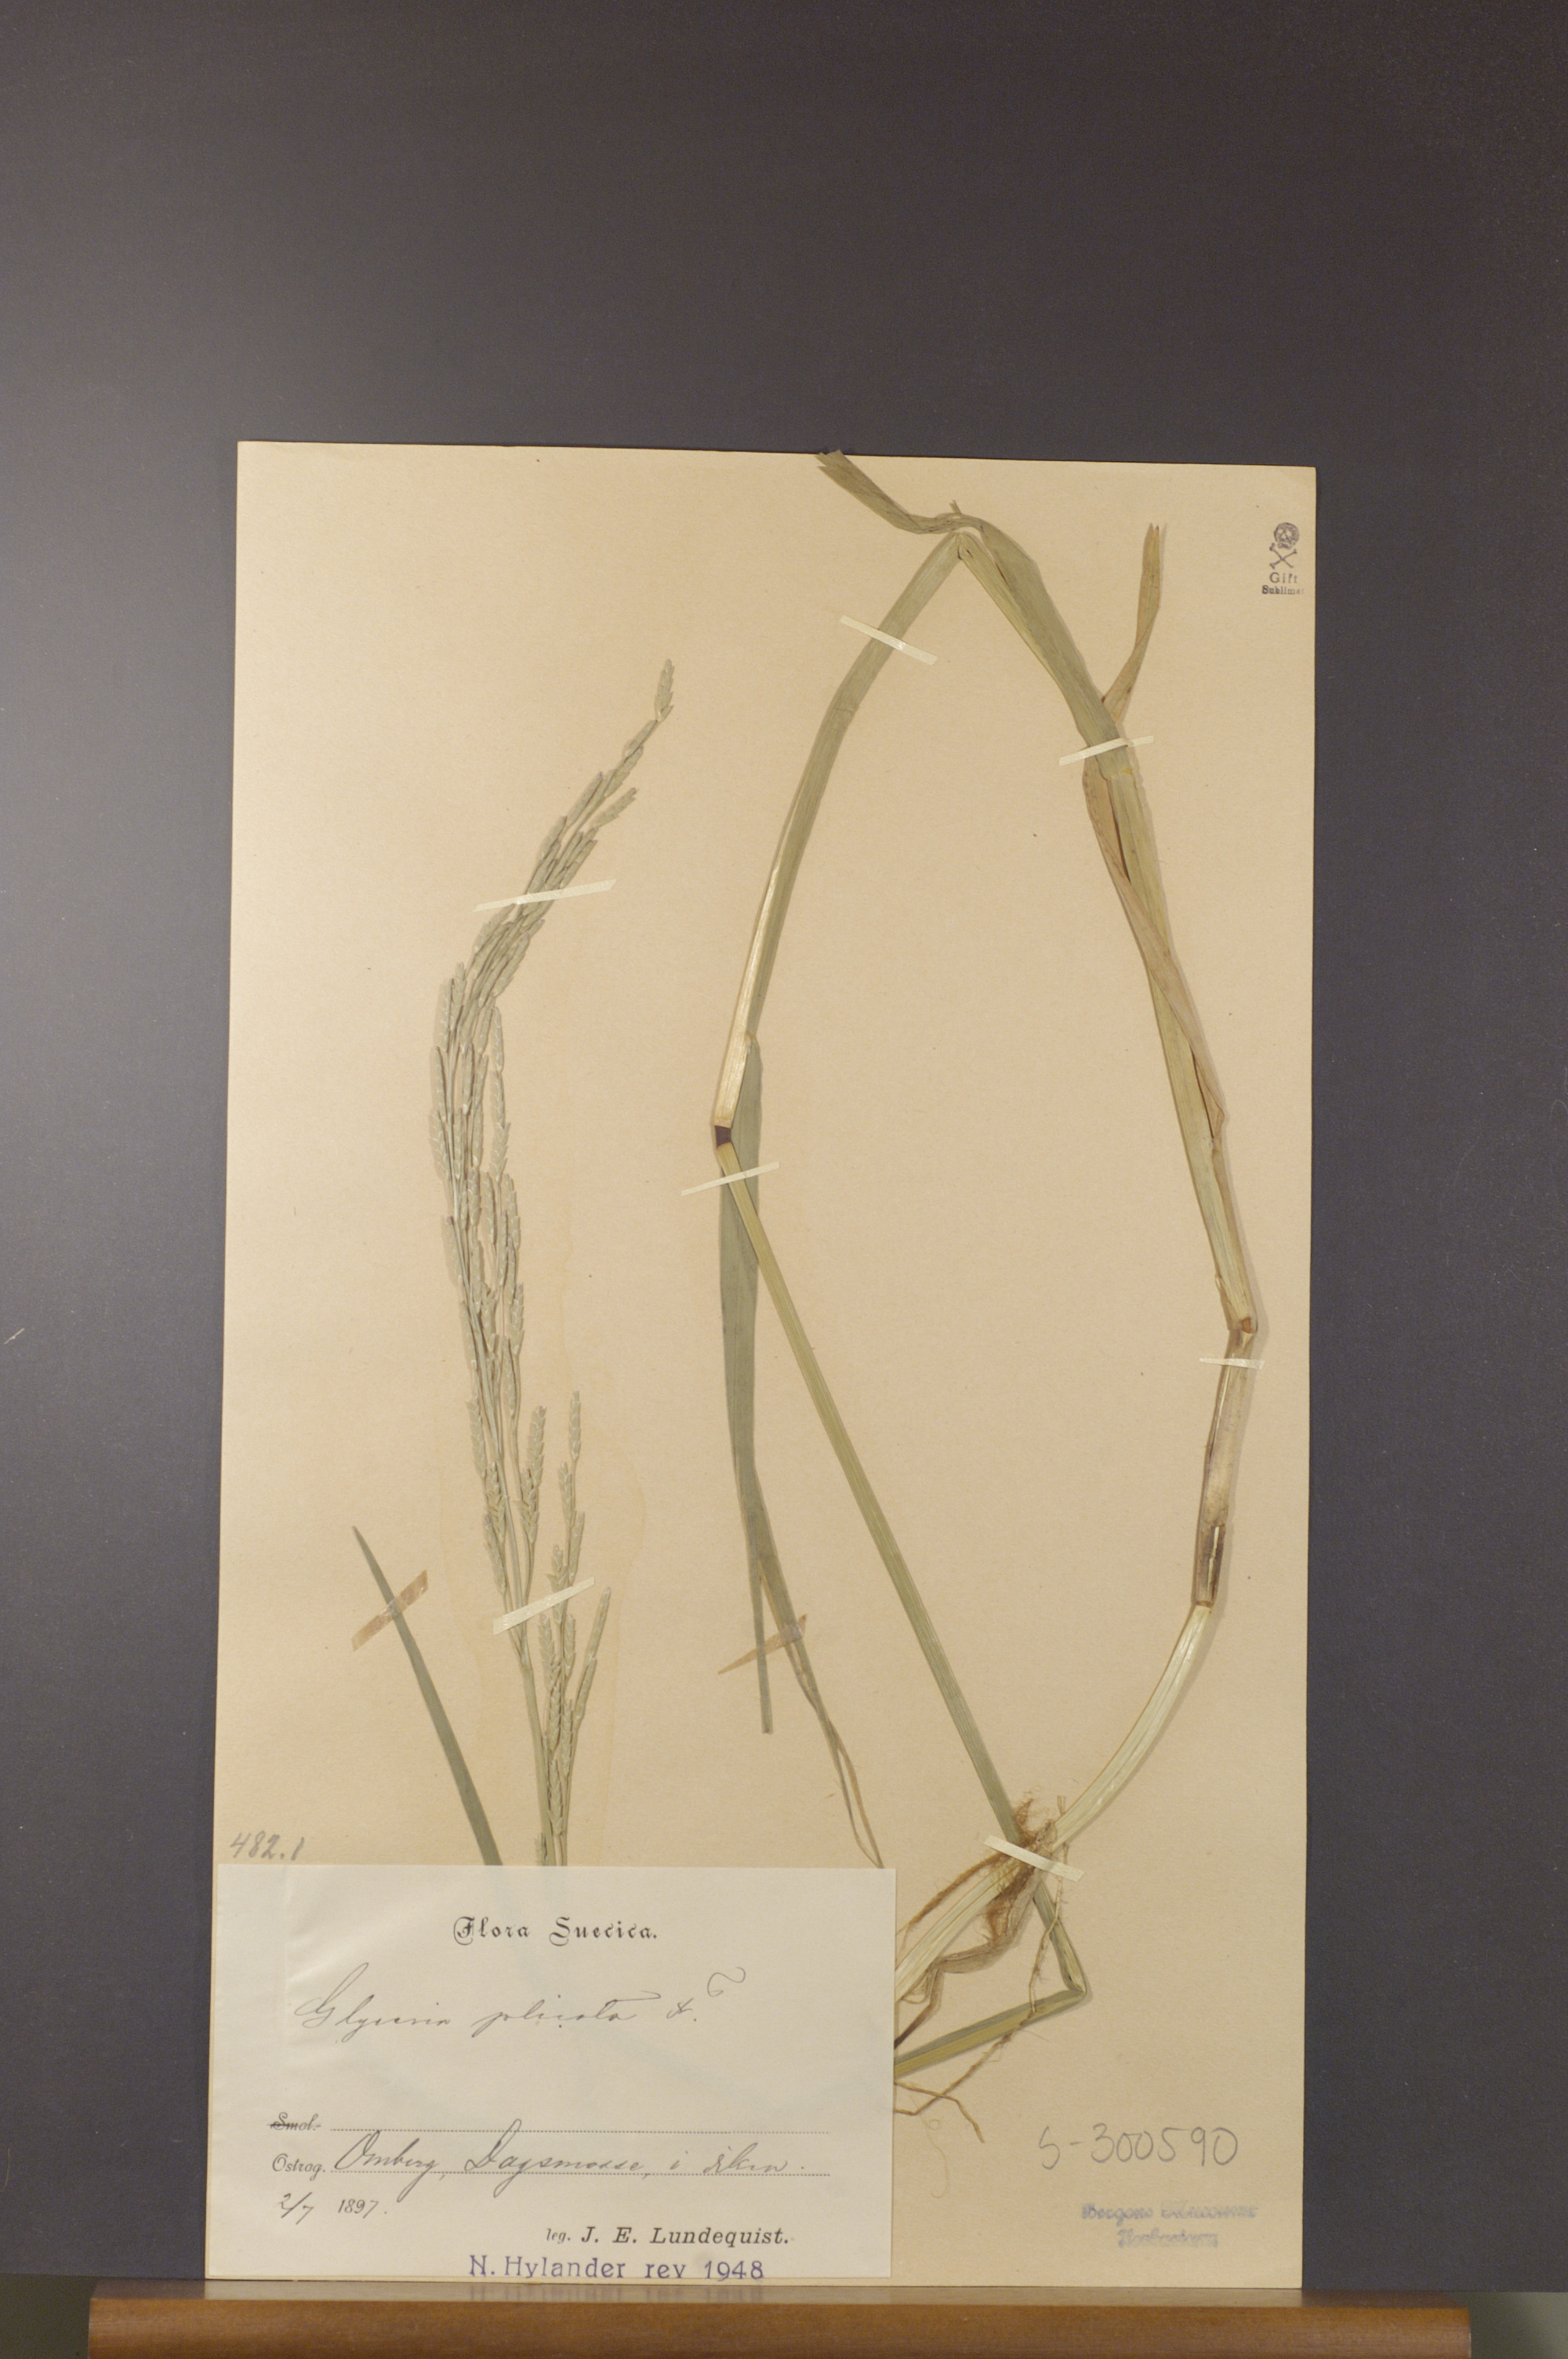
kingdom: Plantae
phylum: Tracheophyta
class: Liliopsida
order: Poales
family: Poaceae
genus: Glyceria
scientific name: Glyceria notata
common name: Plicate sweet-grass
